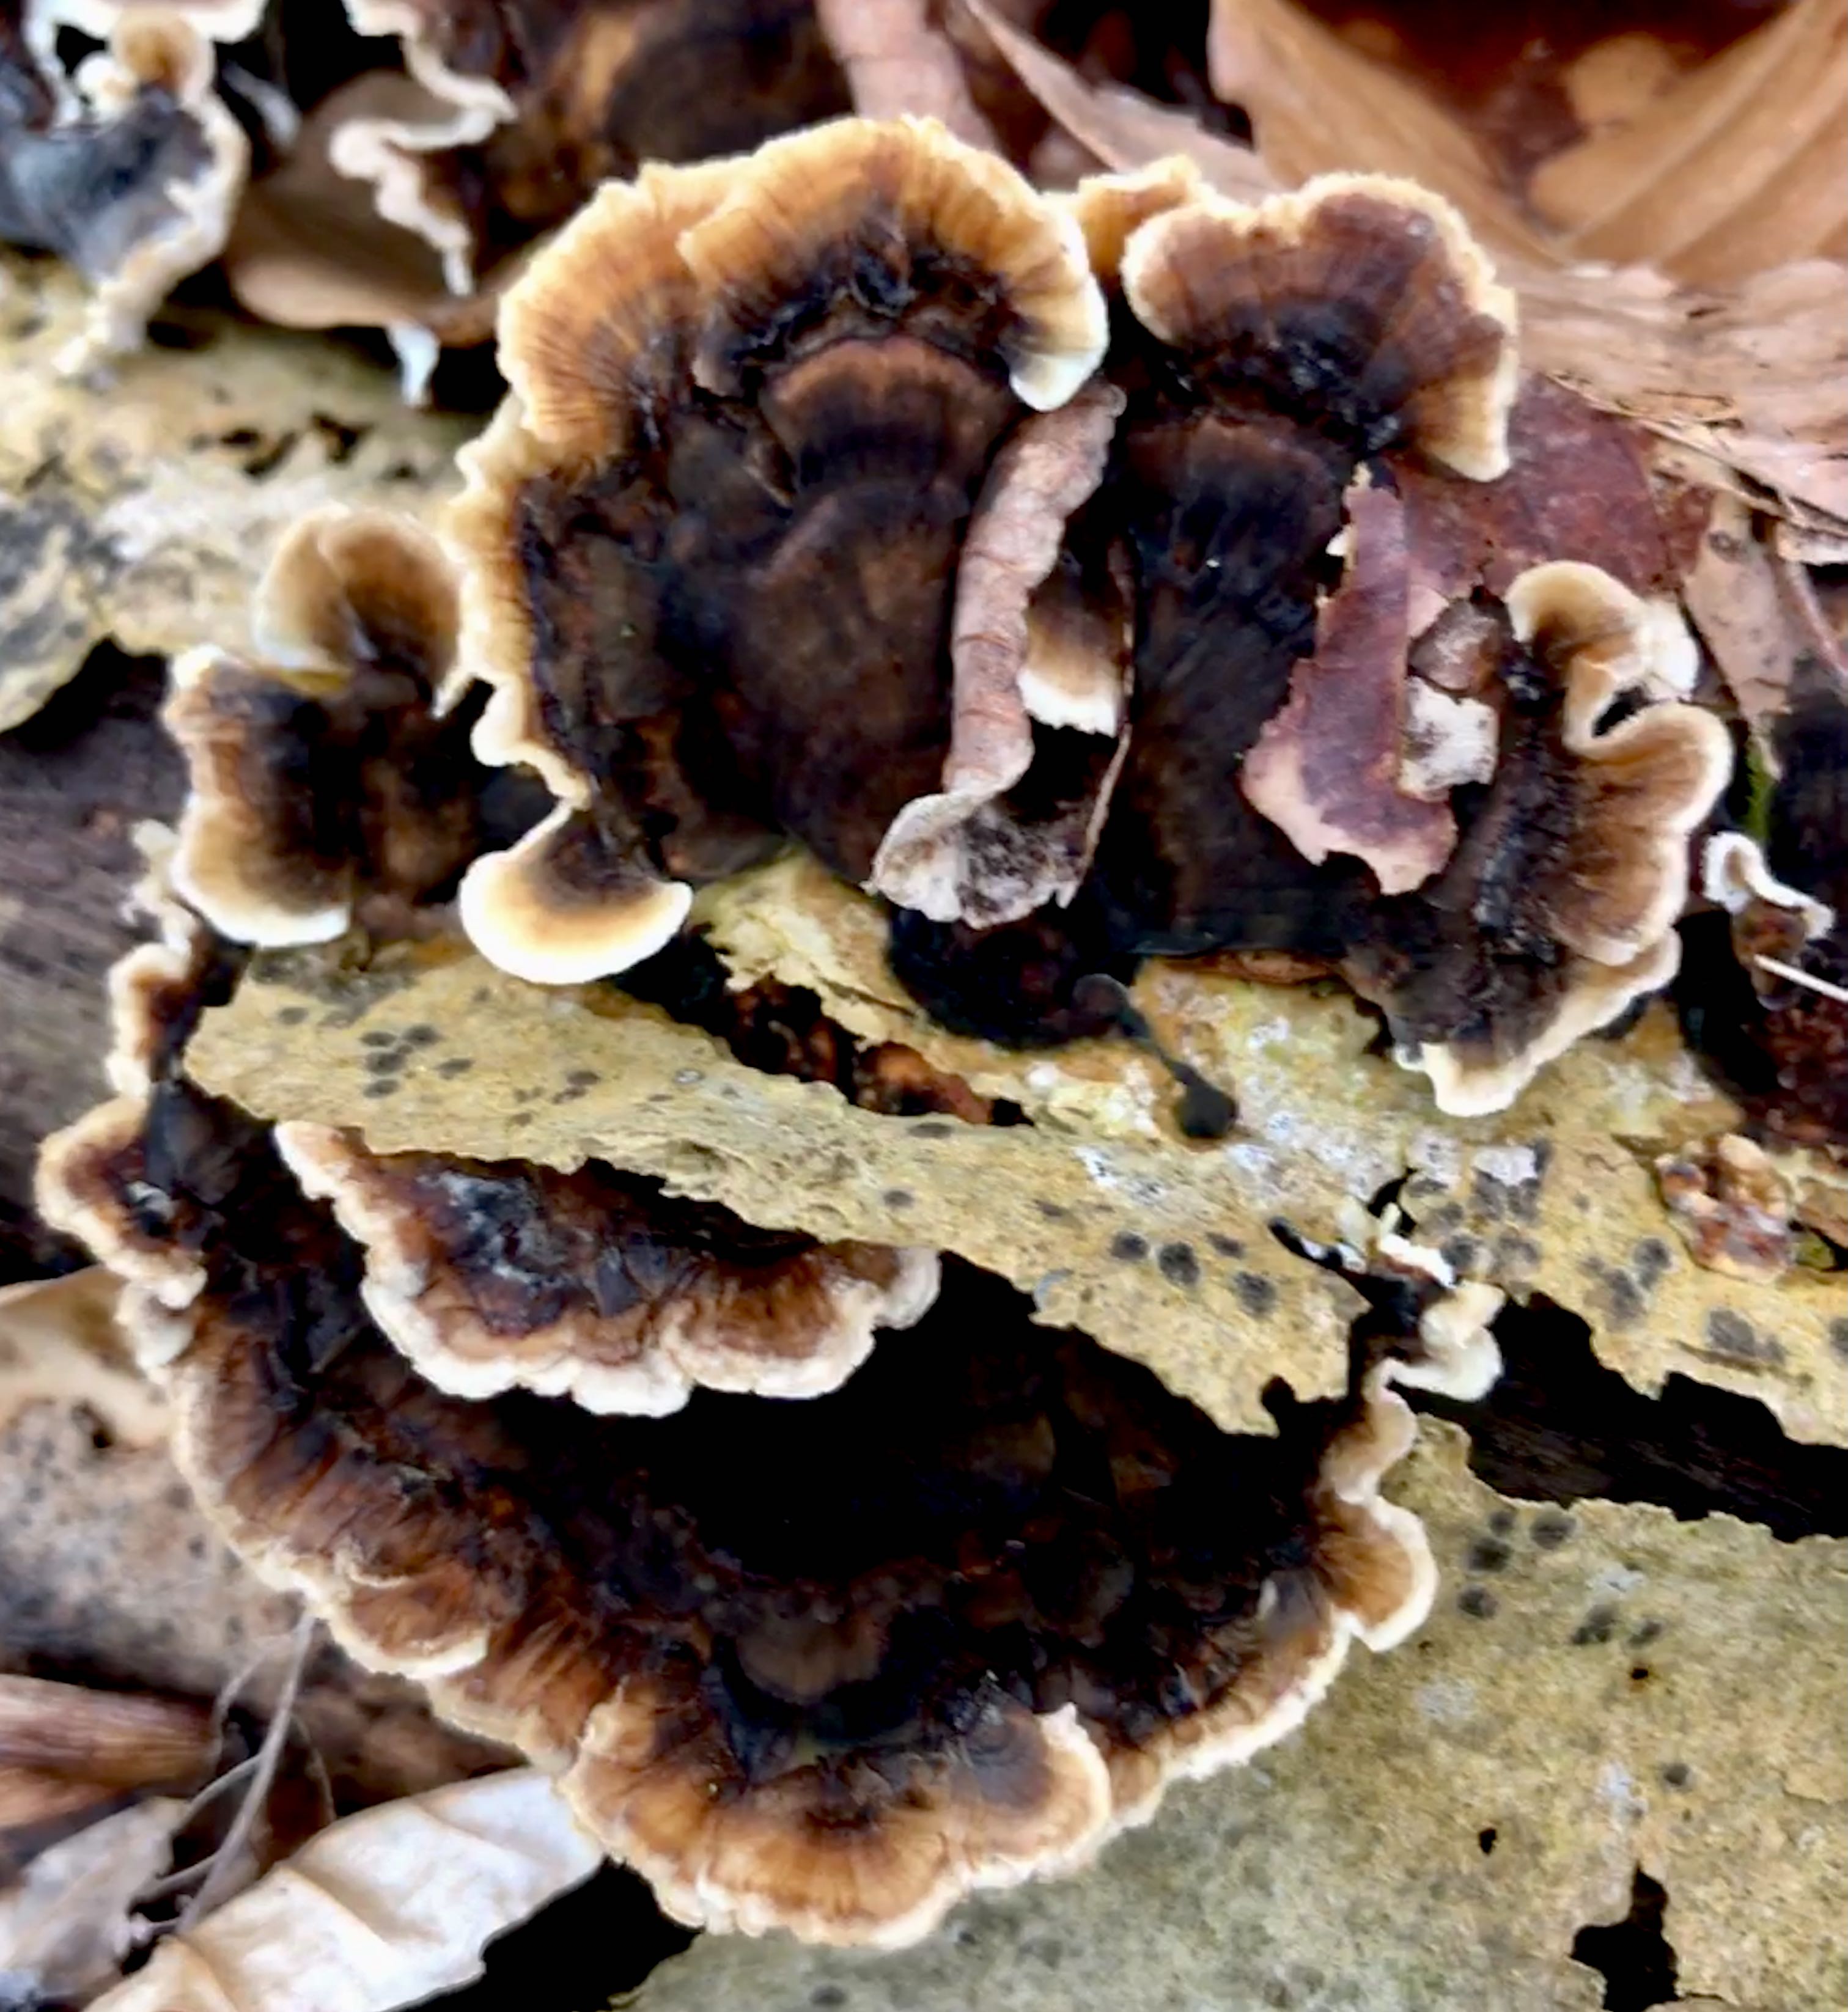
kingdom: Fungi
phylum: Basidiomycota
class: Agaricomycetes
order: Polyporales
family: Polyporaceae
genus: Trametes
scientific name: Trametes versicolor
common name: broget læderporesvamp
